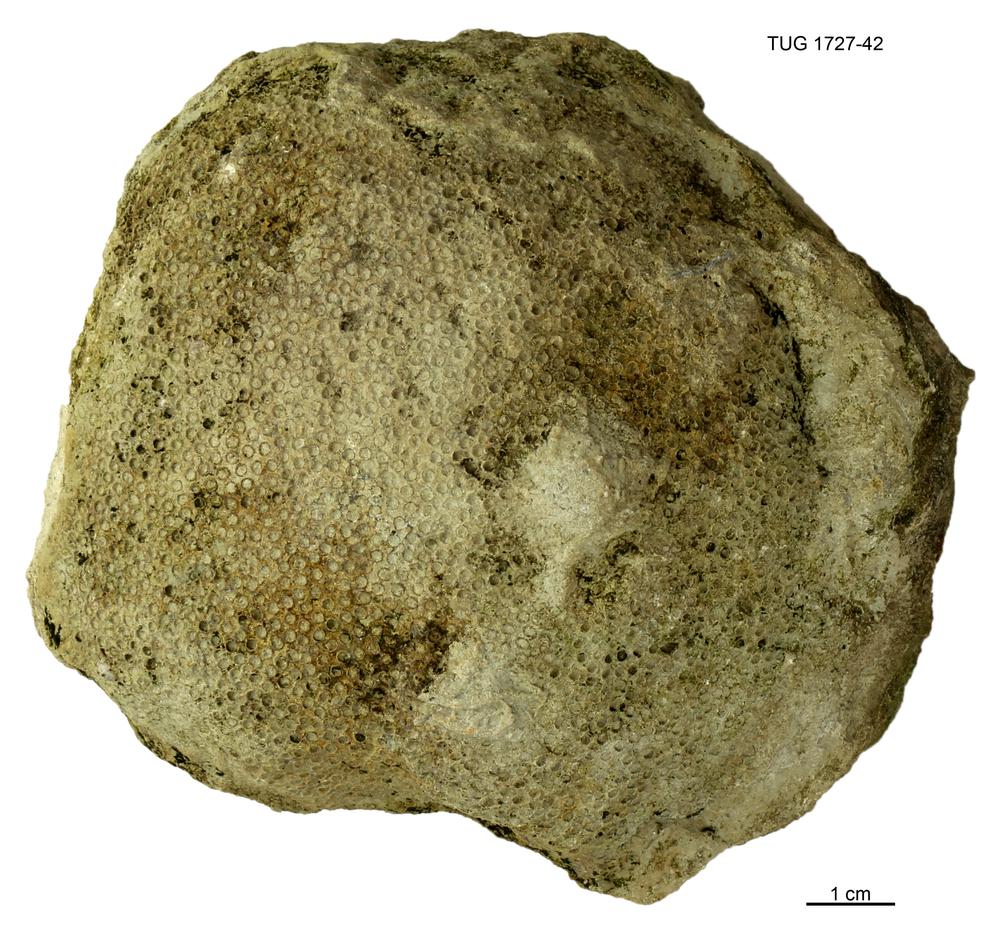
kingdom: Animalia
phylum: Xenacoelomorpha
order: Acoela
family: Proporidae
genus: Propora
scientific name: Propora
